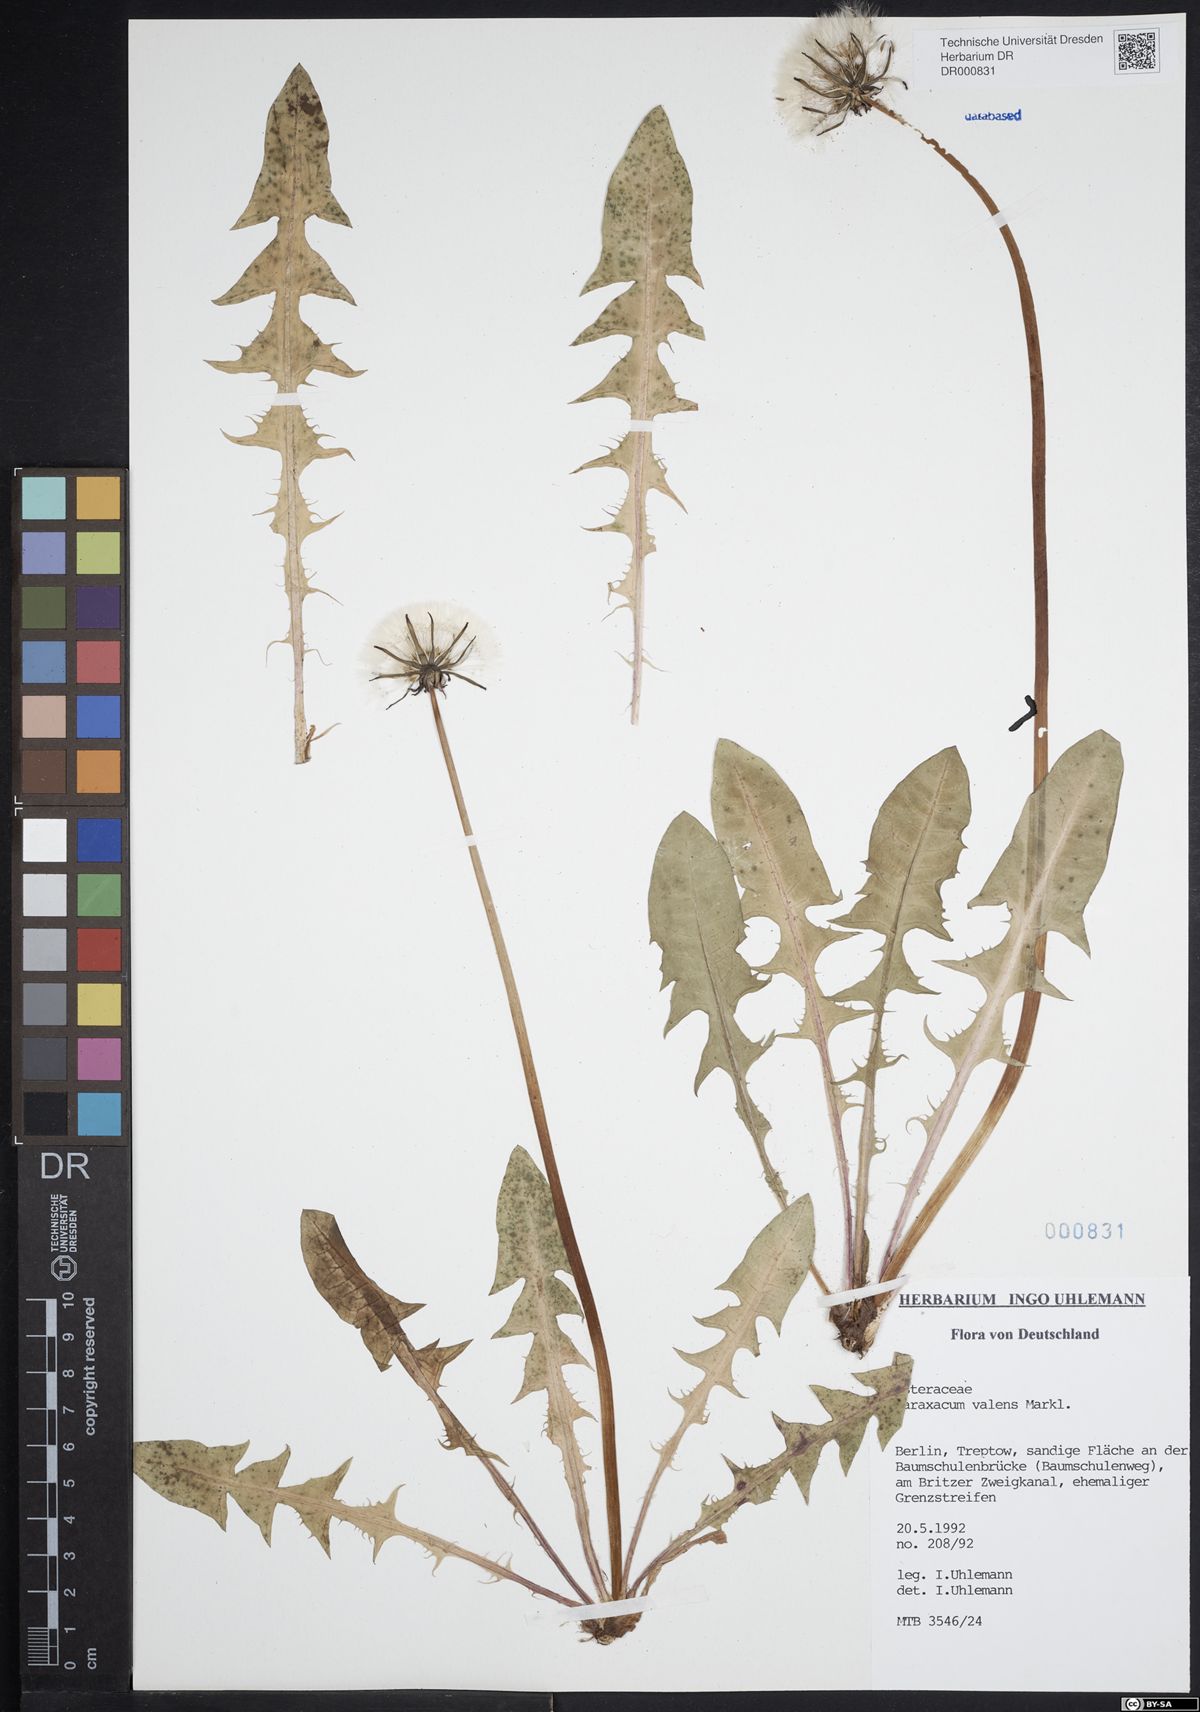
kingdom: Plantae
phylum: Tracheophyta
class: Magnoliopsida
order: Asterales
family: Asteraceae
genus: Taraxacum
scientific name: Taraxacum valens
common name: Reflexed-bracted dandelion
